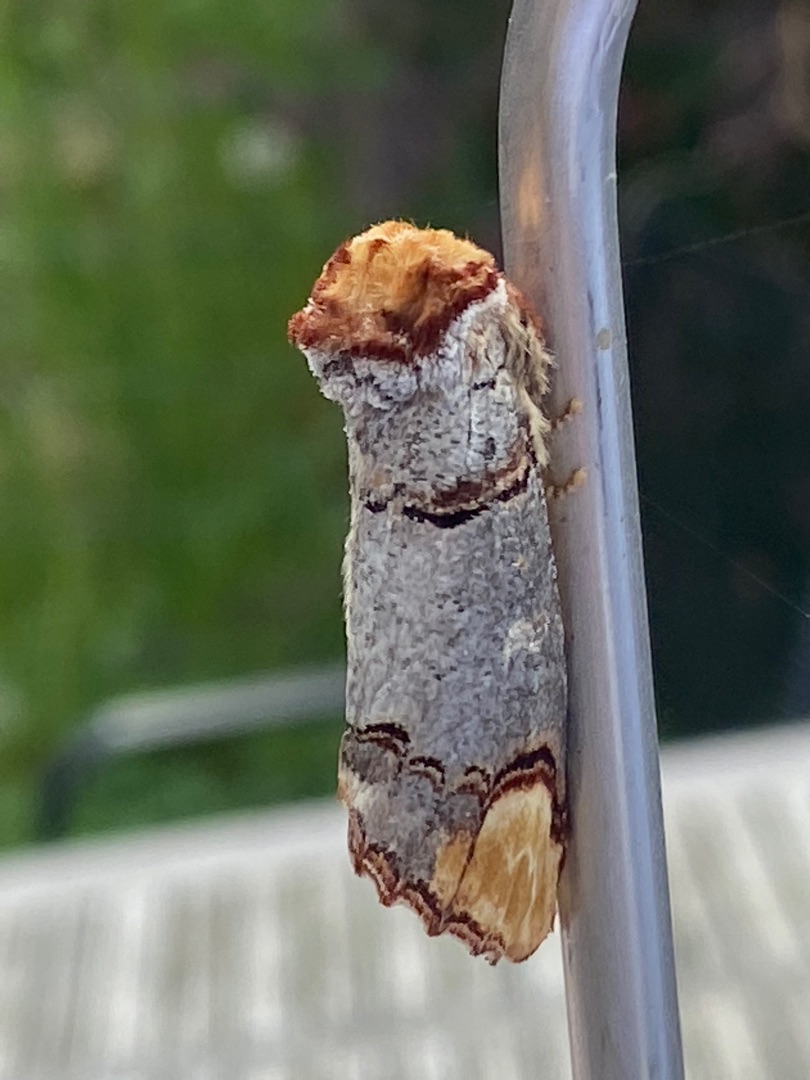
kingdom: Animalia
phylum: Arthropoda
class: Insecta
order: Lepidoptera
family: Notodontidae
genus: Phalera
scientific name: Phalera bucephala
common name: Måneplet
